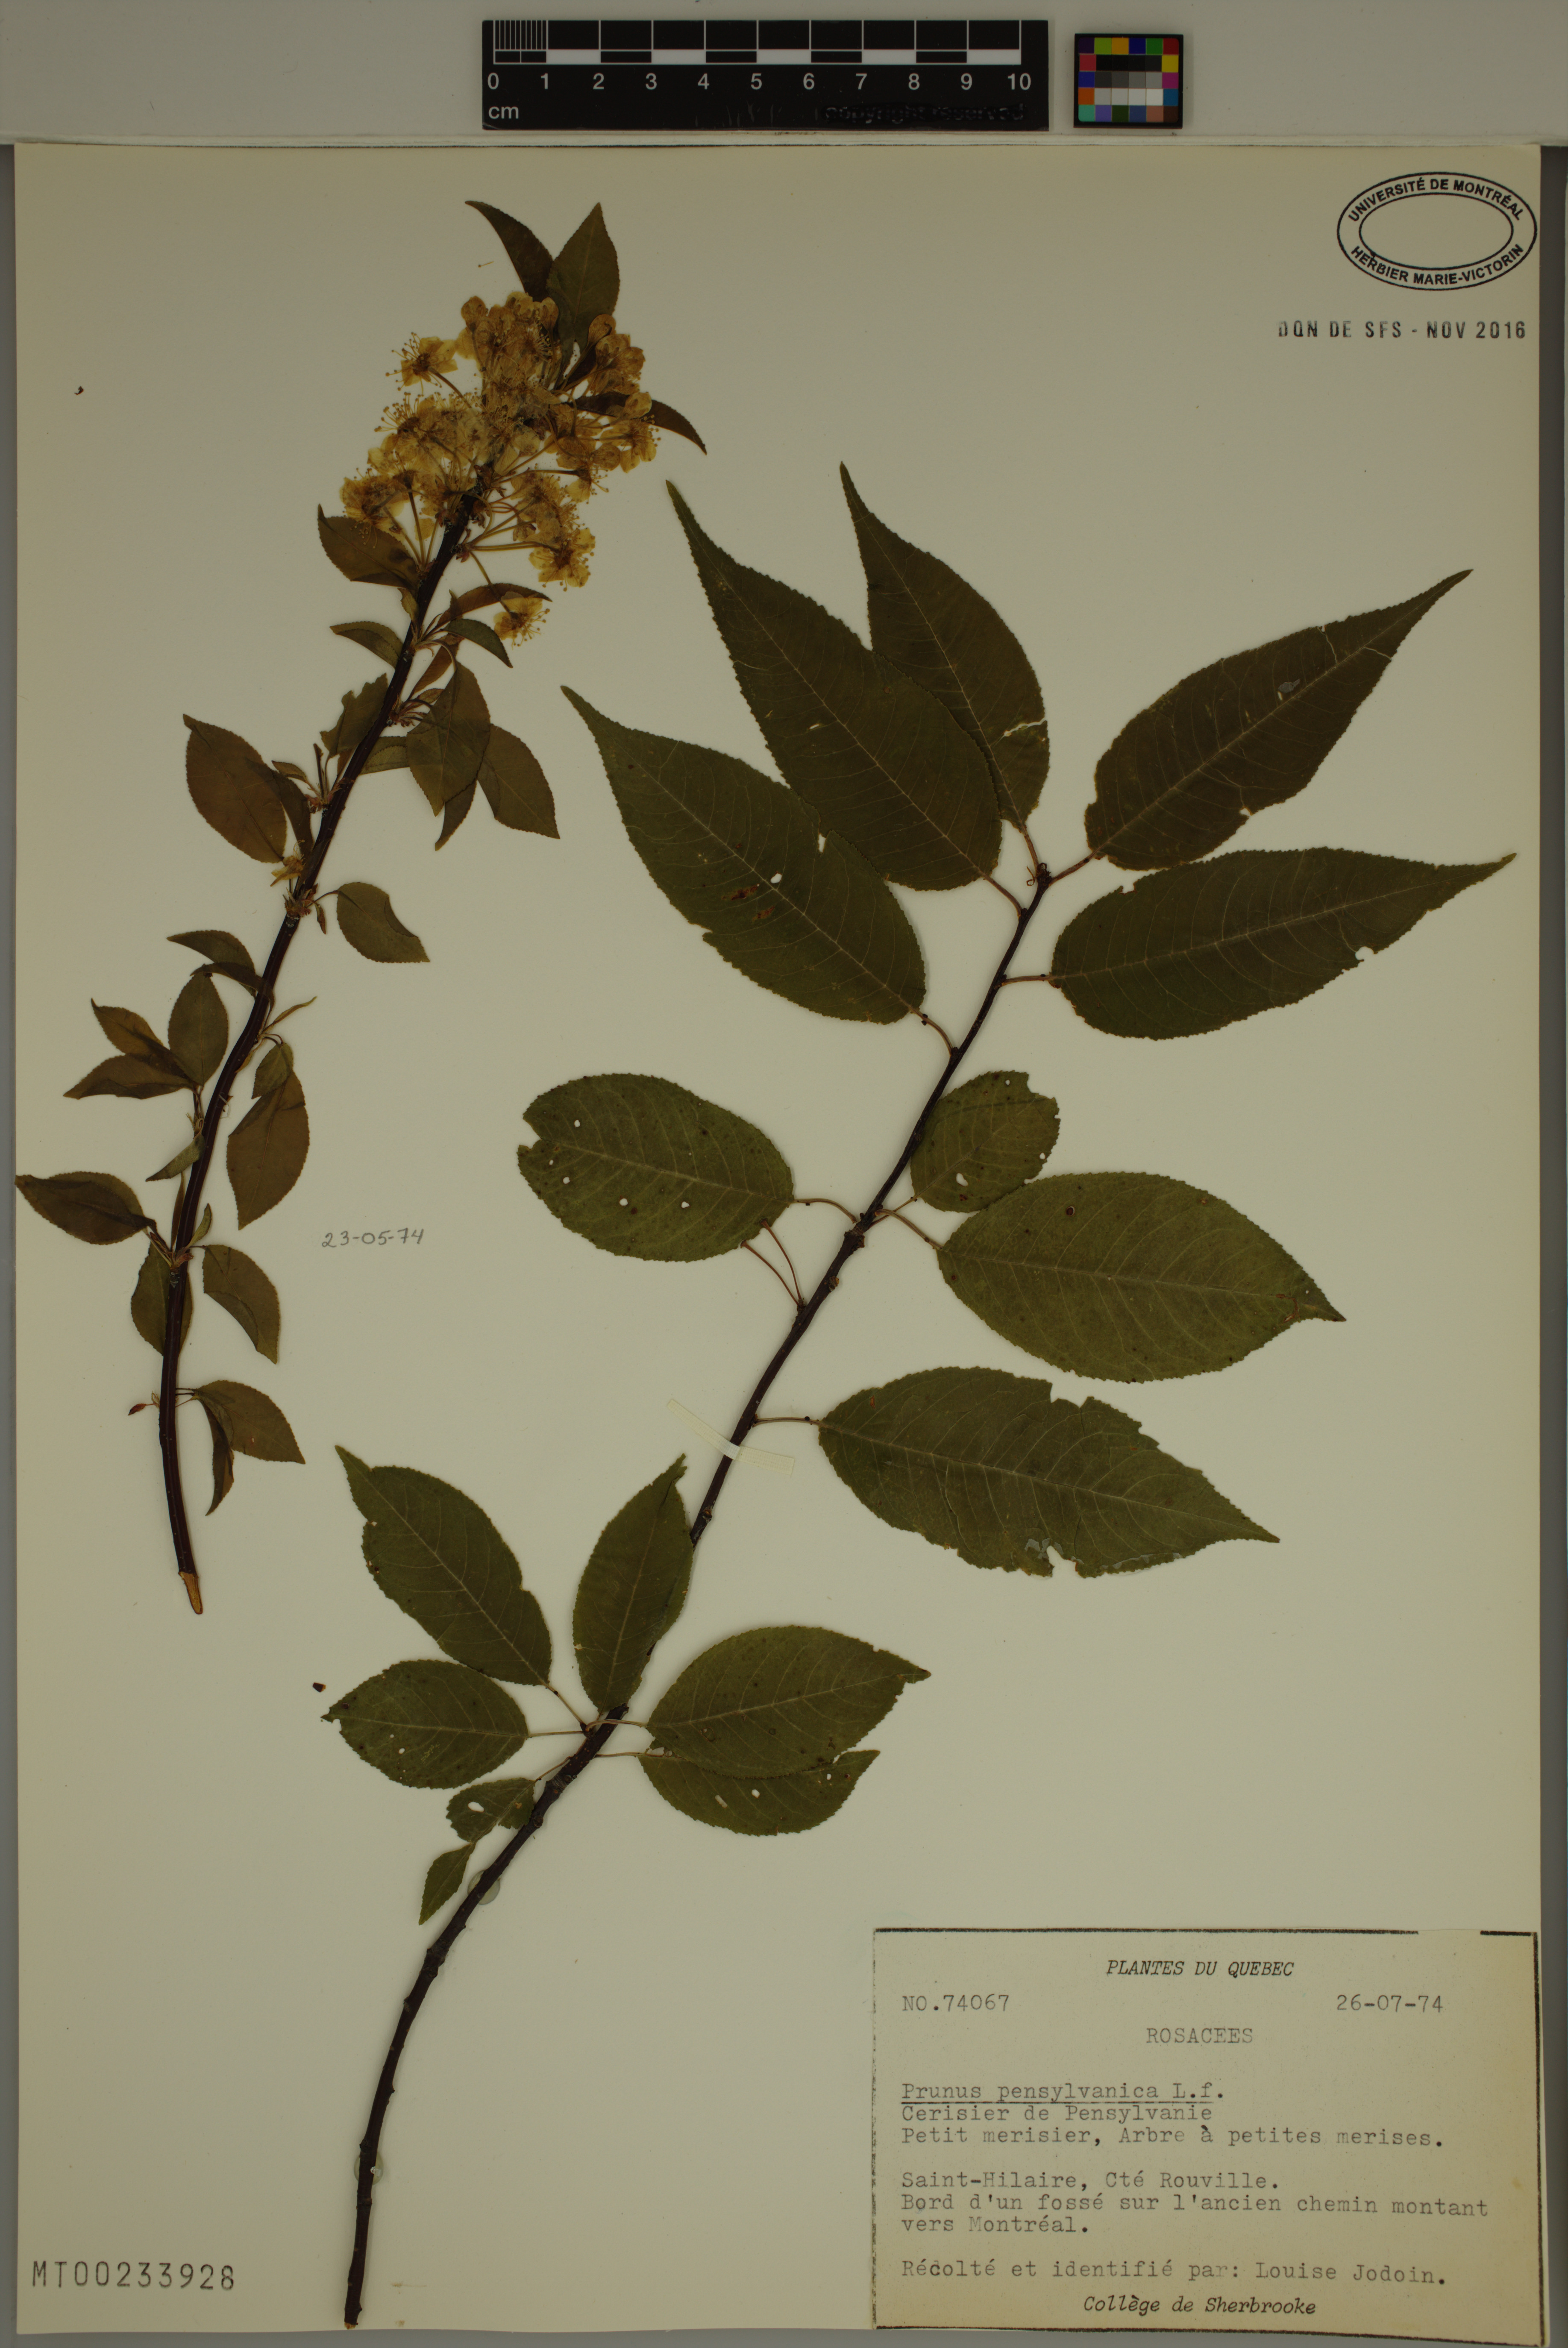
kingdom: Plantae
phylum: Tracheophyta
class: Magnoliopsida
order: Rosales
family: Rosaceae
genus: Prunus
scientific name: Prunus pensylvanica
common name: Pin cherry
